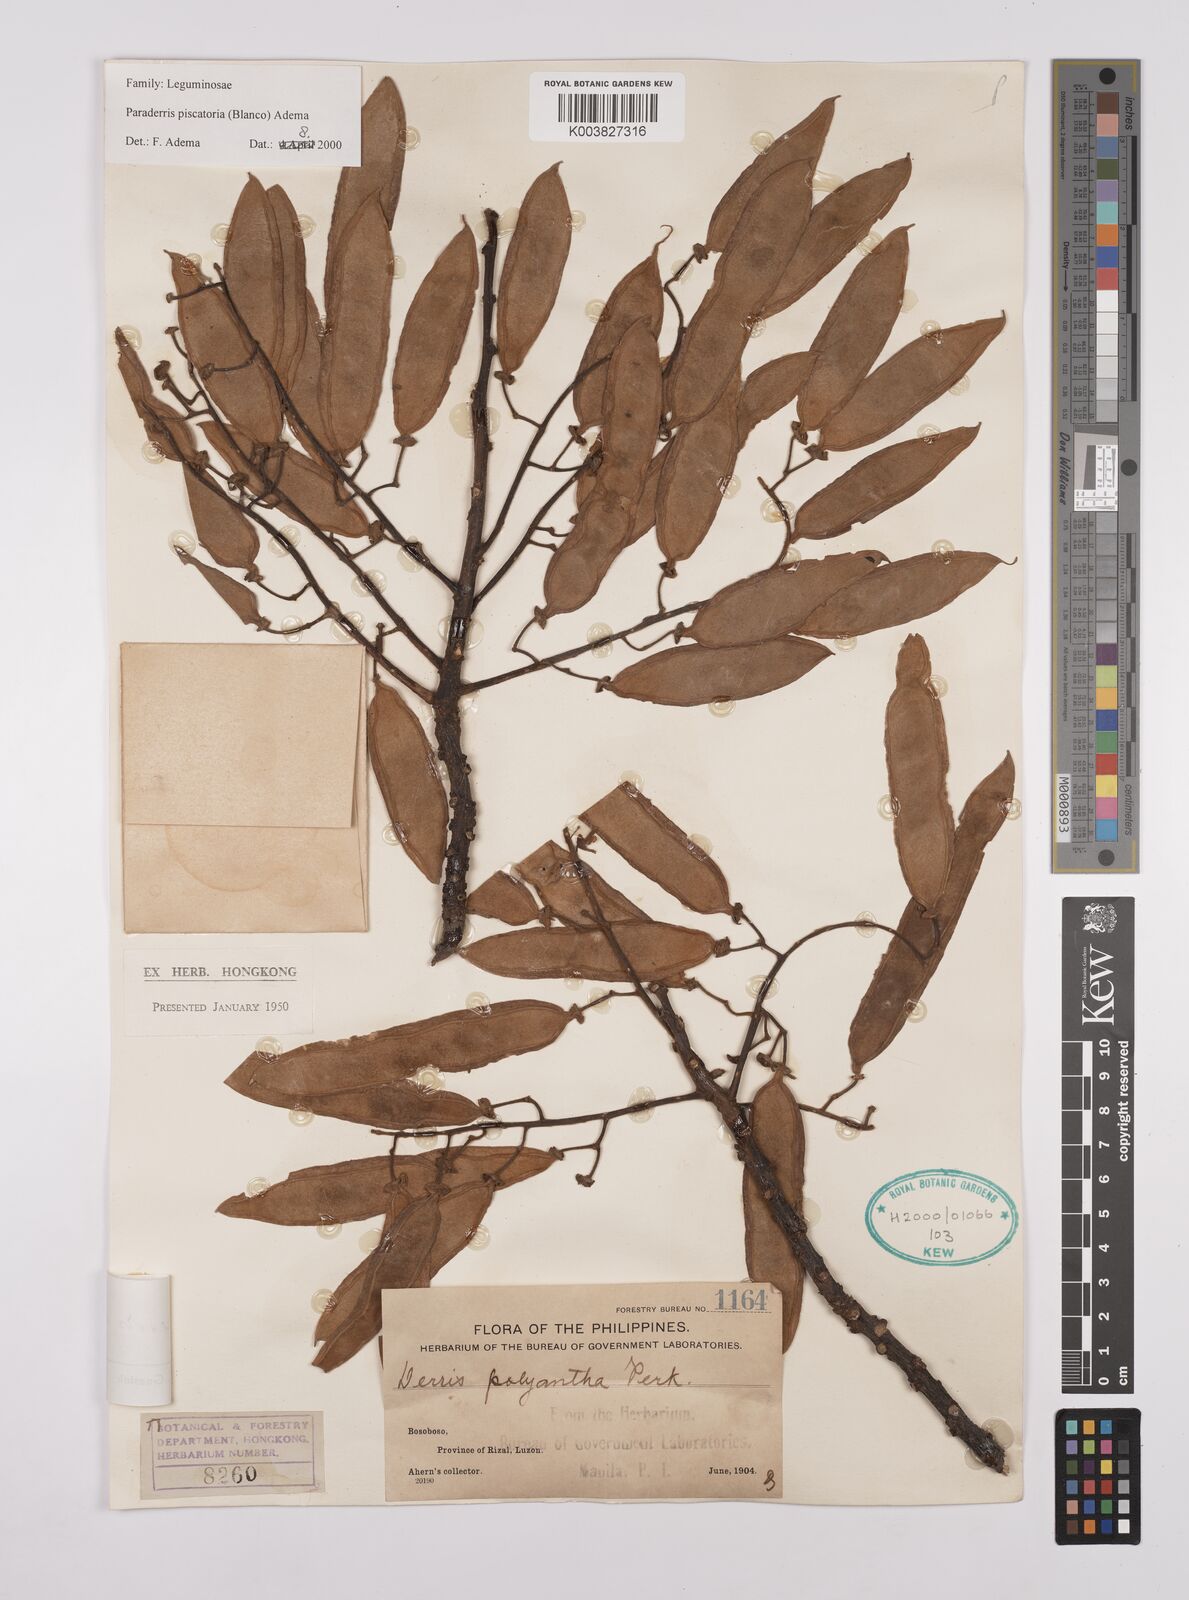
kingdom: Plantae
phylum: Tracheophyta
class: Magnoliopsida
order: Fabales
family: Fabaceae
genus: Derris
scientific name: Derris piscatoria
